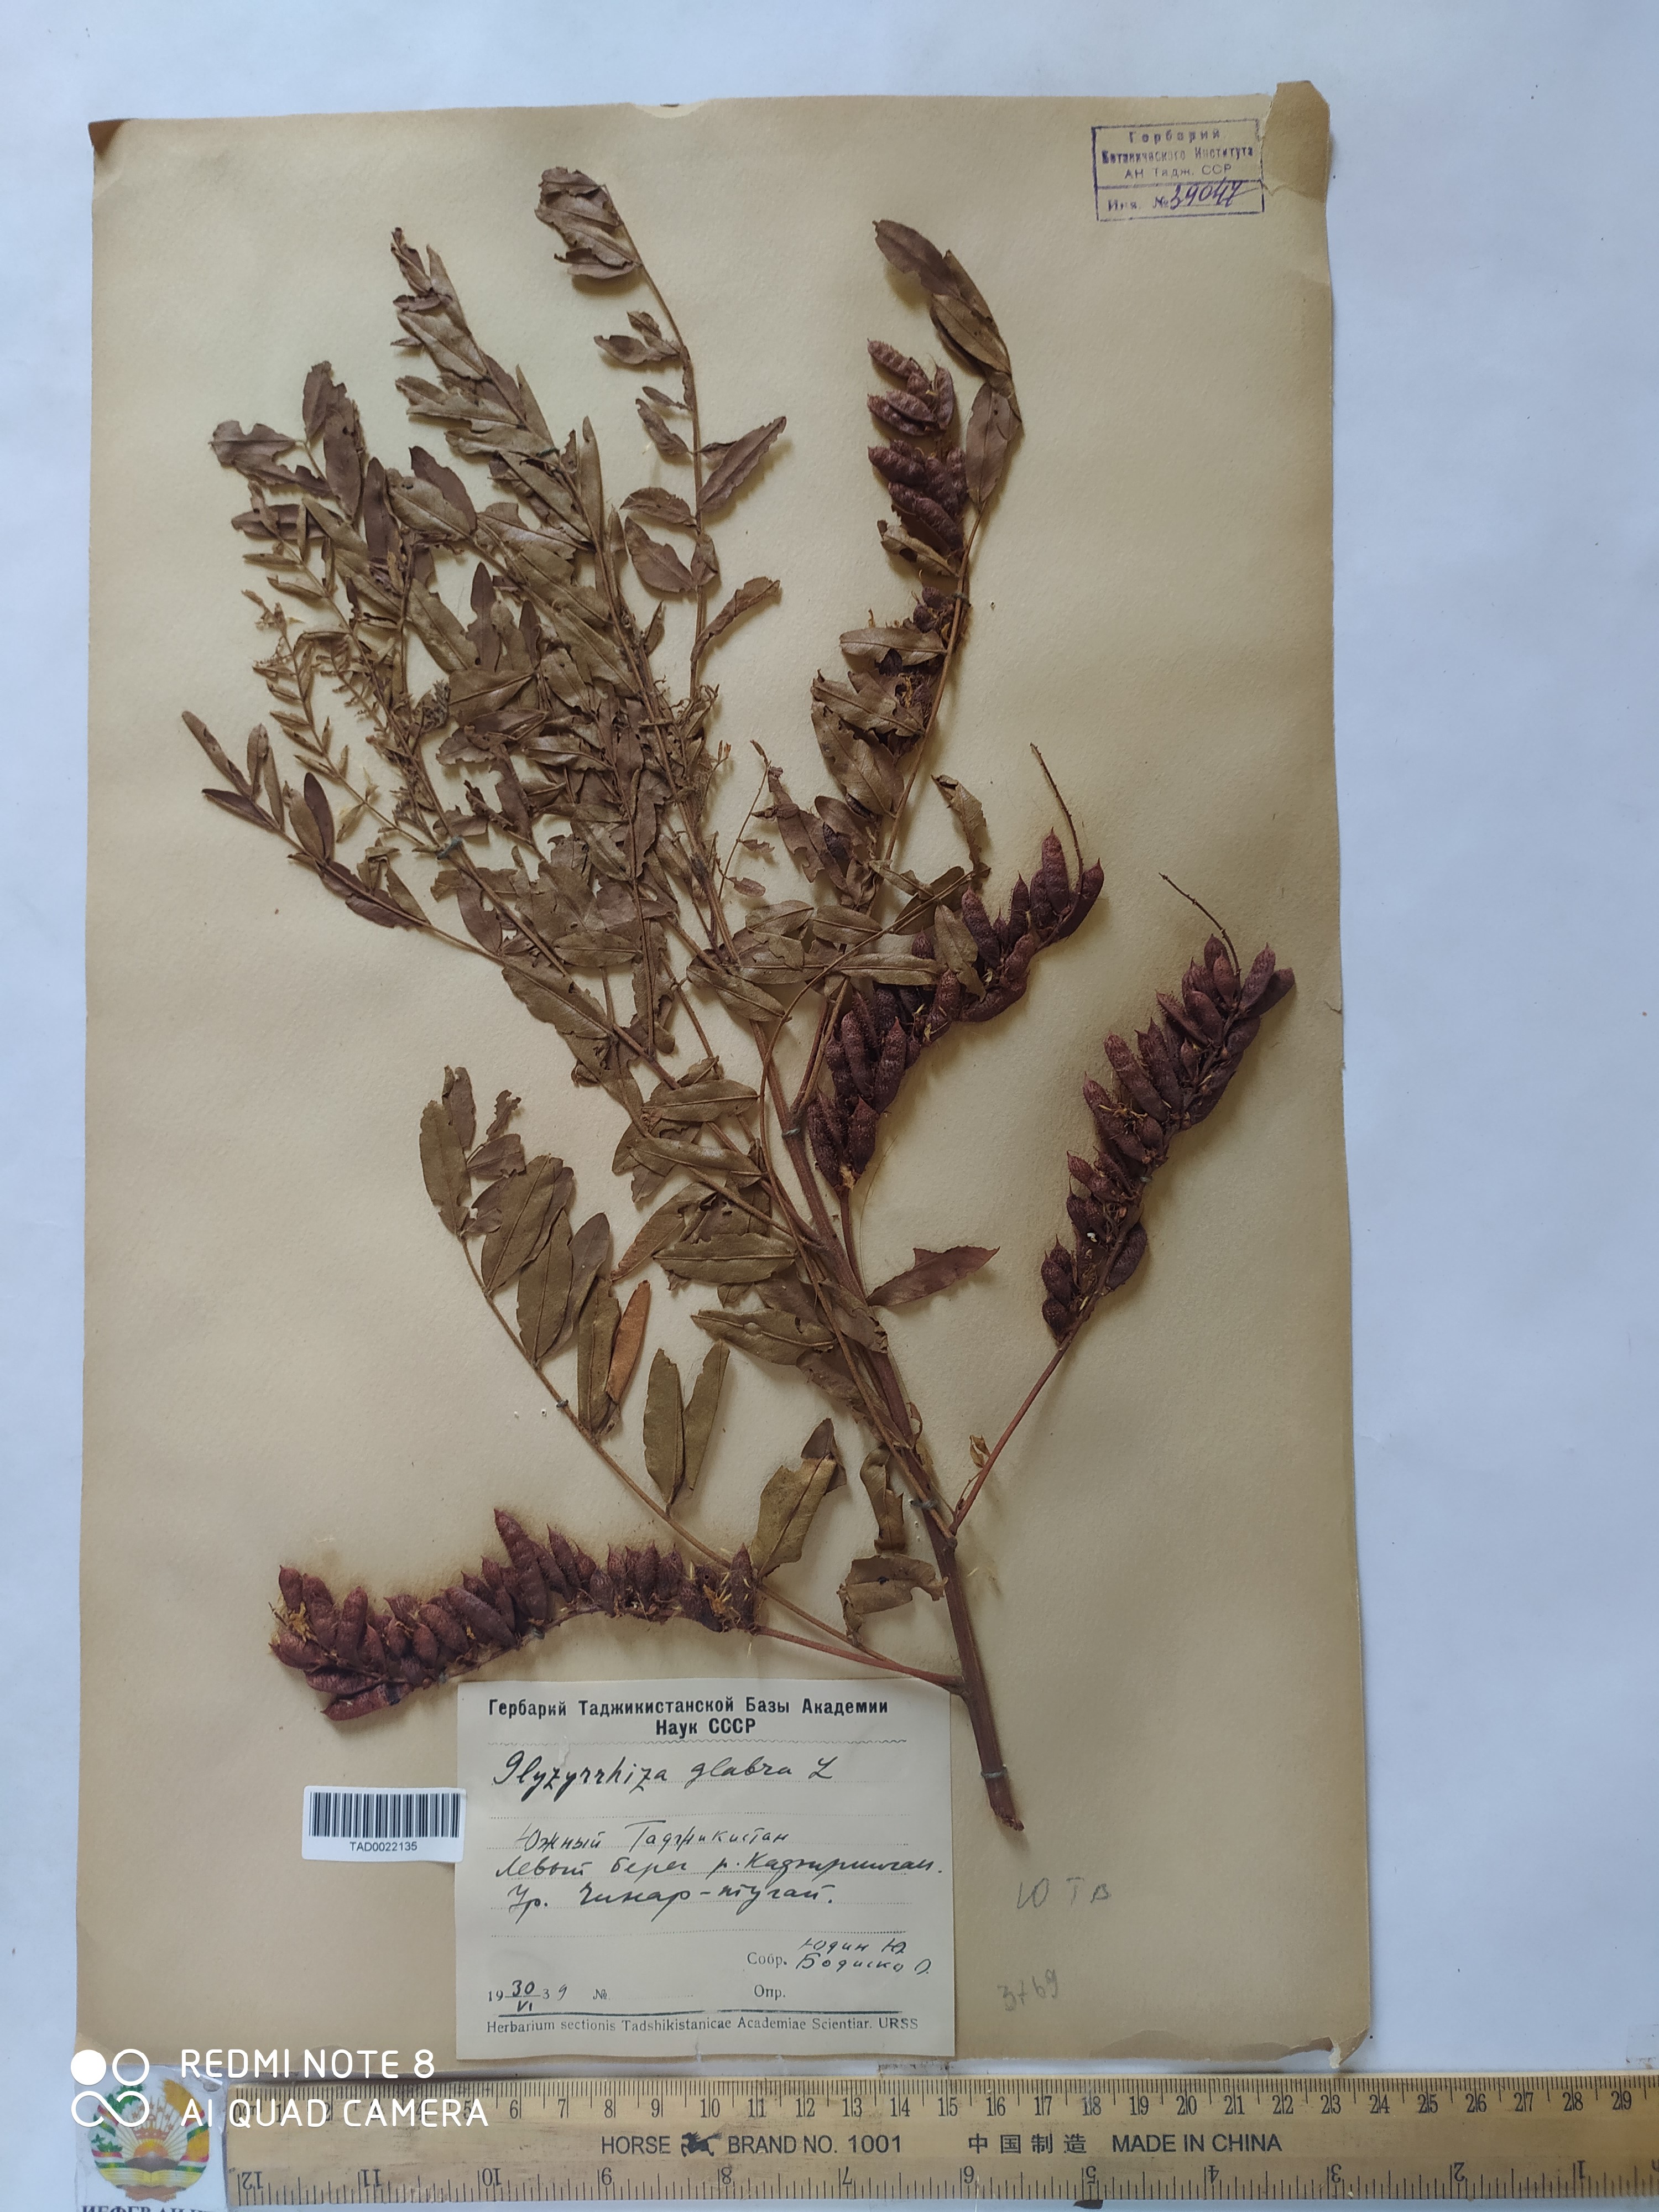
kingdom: Plantae
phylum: Tracheophyta
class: Magnoliopsida
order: Fabales
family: Fabaceae
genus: Glycyrrhiza
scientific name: Glycyrrhiza glabra
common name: Liquorice
